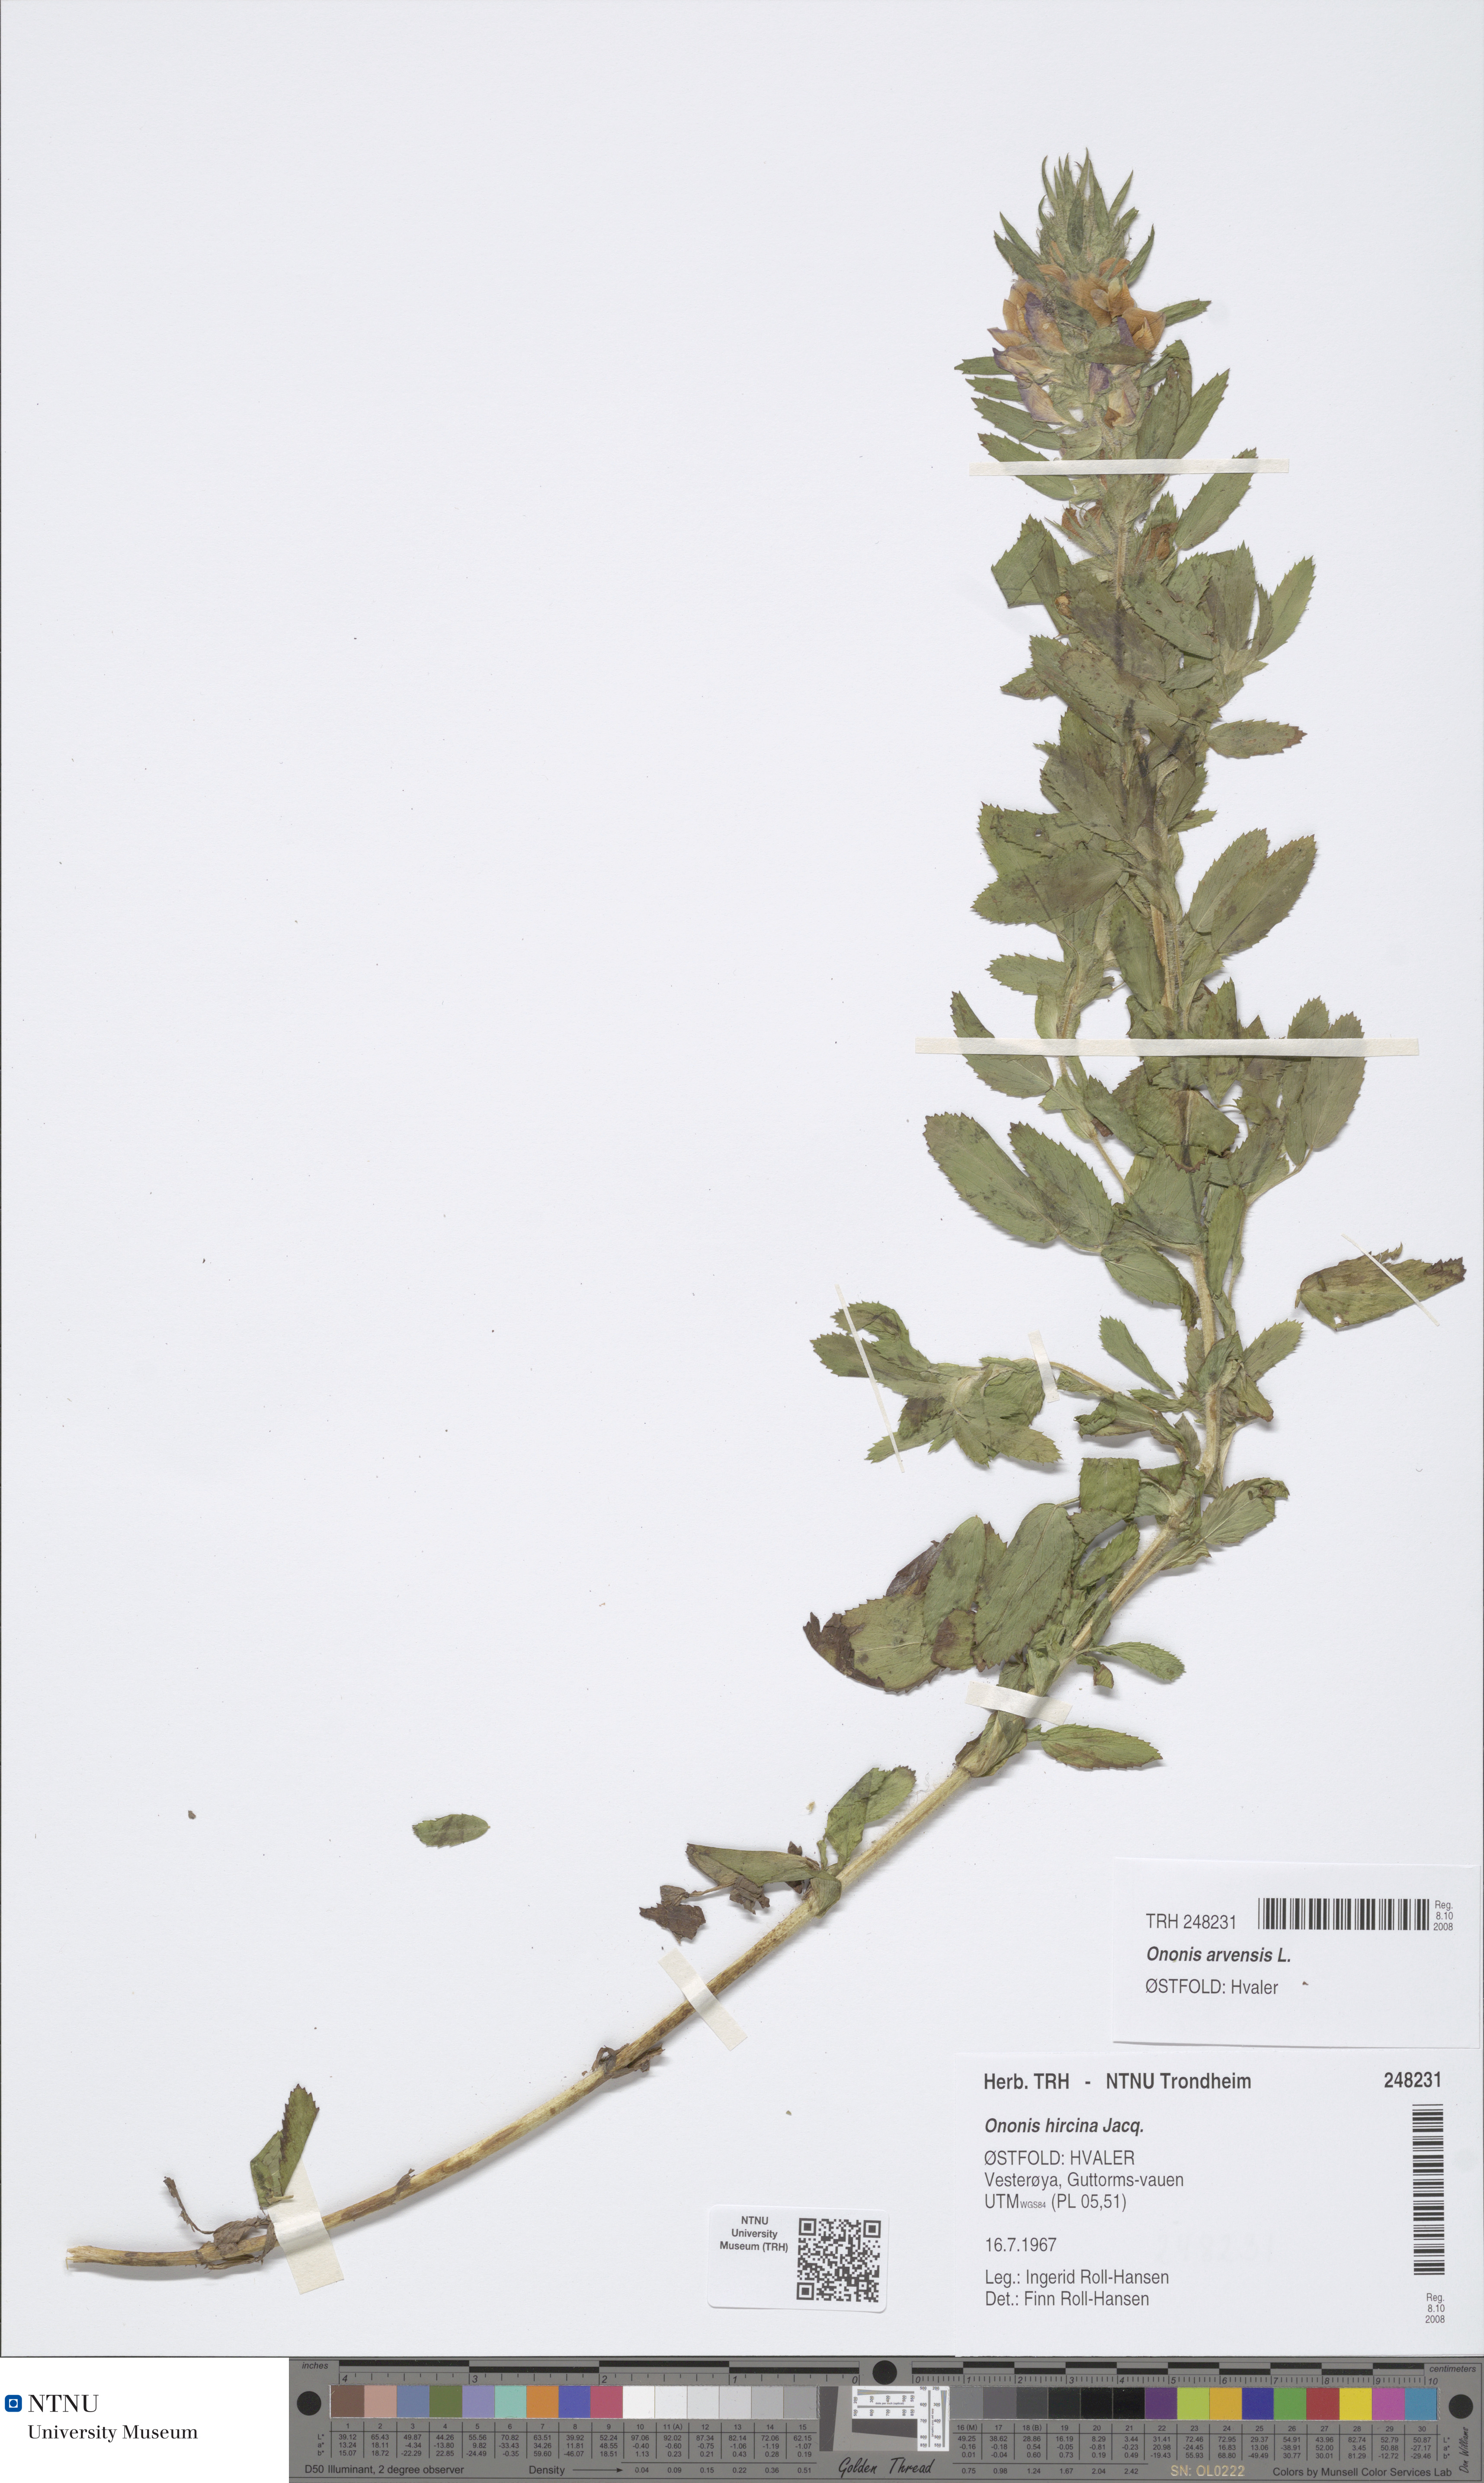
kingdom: Plantae
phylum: Tracheophyta
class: Magnoliopsida
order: Fabales
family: Fabaceae
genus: Ononis
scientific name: Ononis arvensis
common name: Field restharrow
